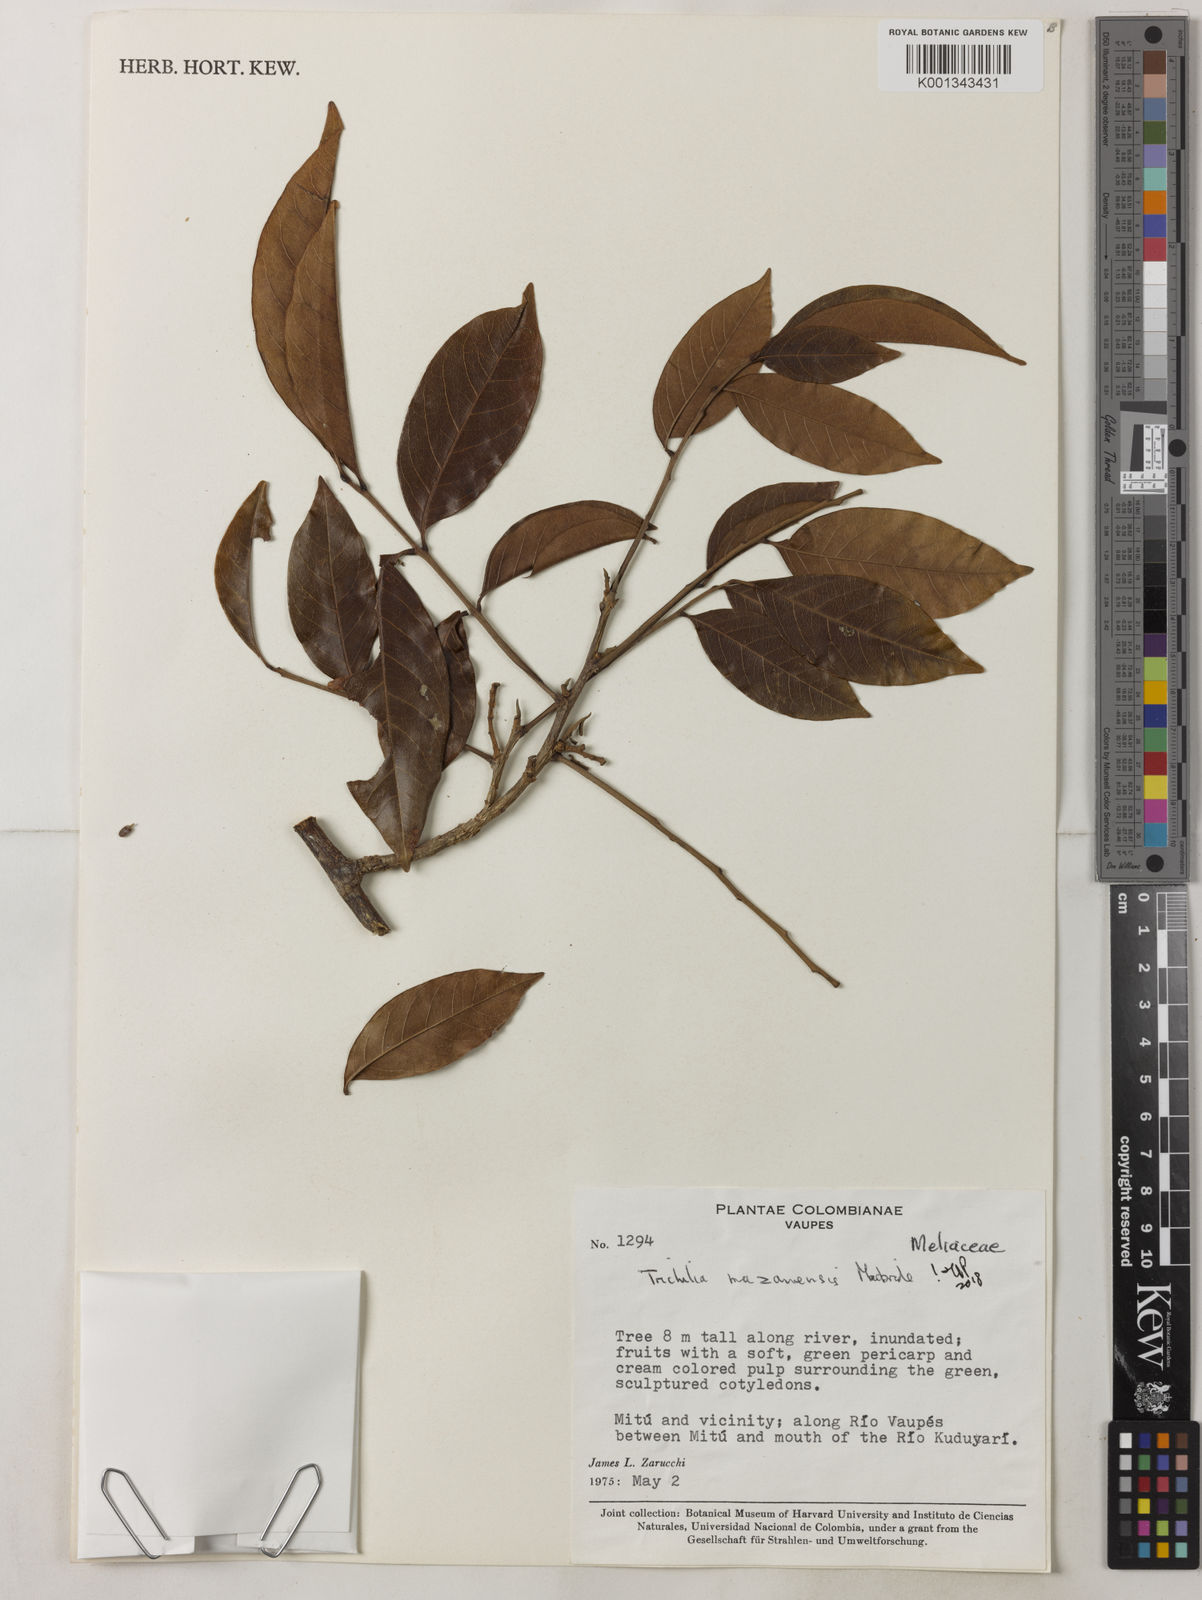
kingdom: Plantae
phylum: Tracheophyta
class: Magnoliopsida
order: Sapindales
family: Meliaceae
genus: Trichilia
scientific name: Trichilia mazanensis
